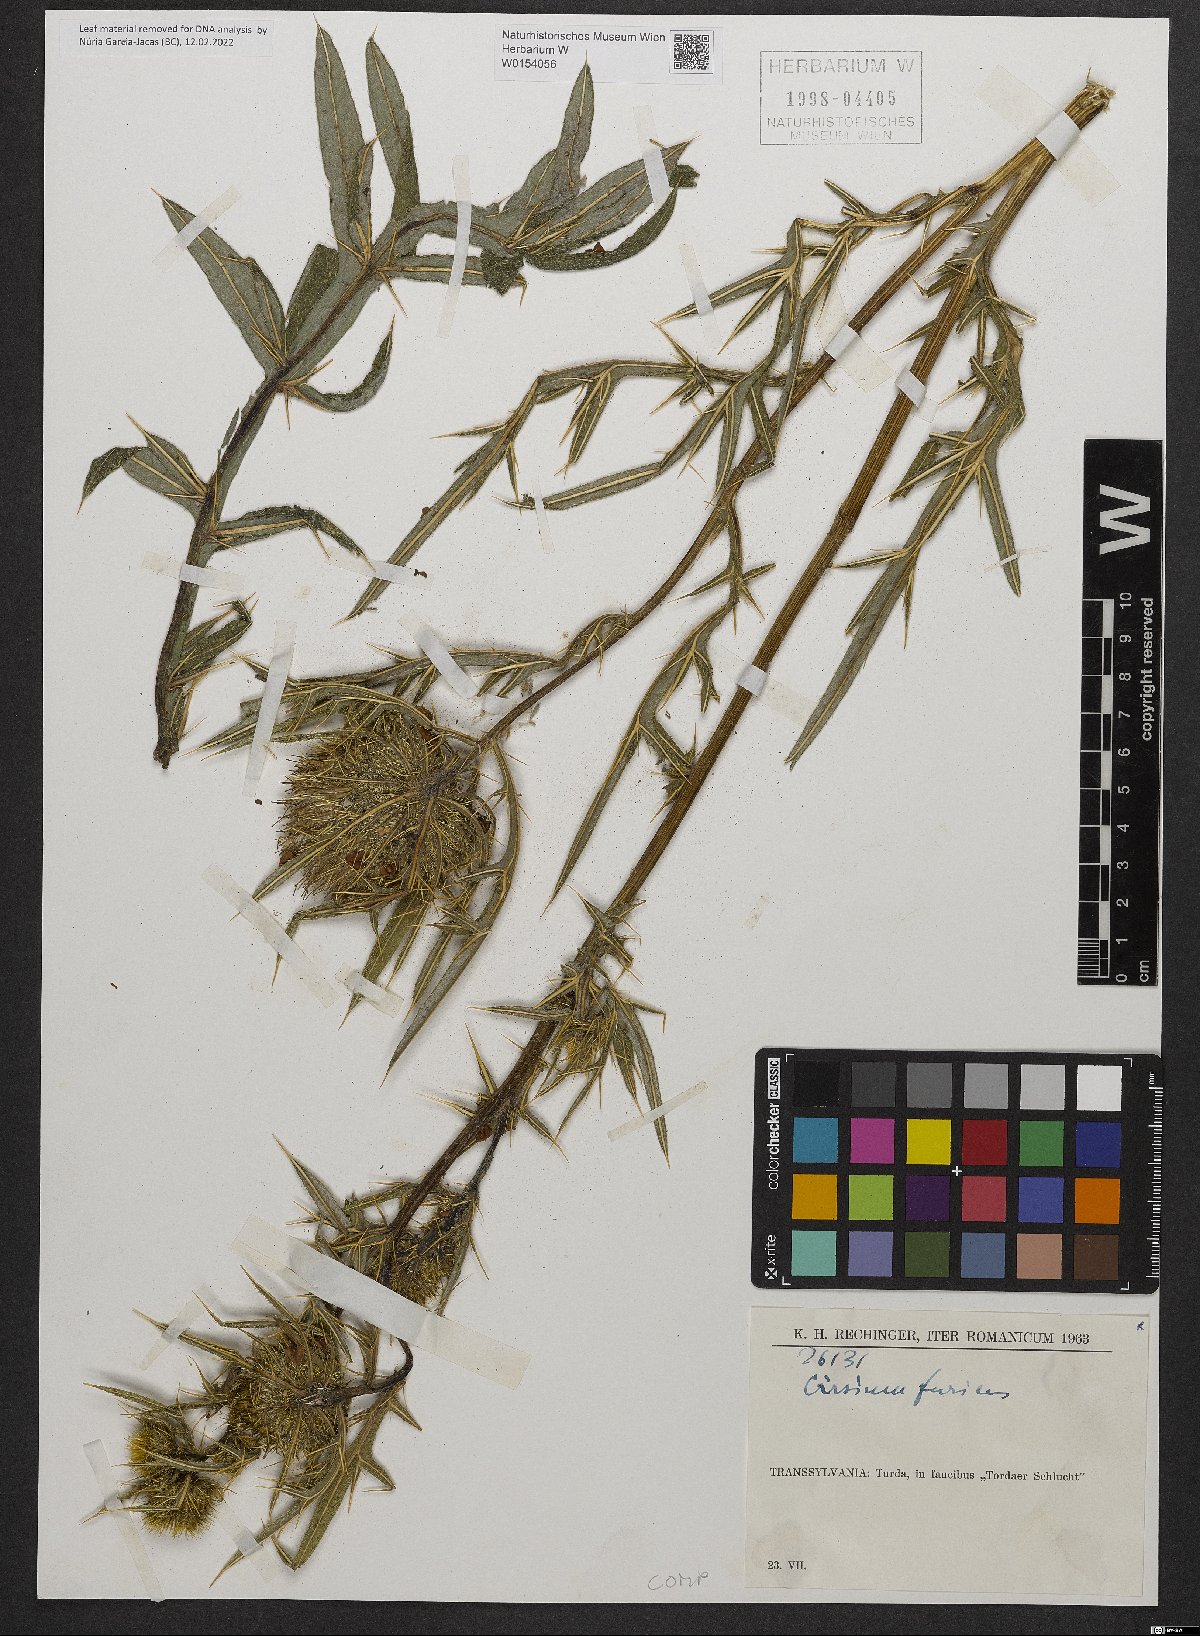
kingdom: Plantae
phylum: Tracheophyta
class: Magnoliopsida
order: Asterales
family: Asteraceae
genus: Lophiolepis
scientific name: Lophiolepis furiens
